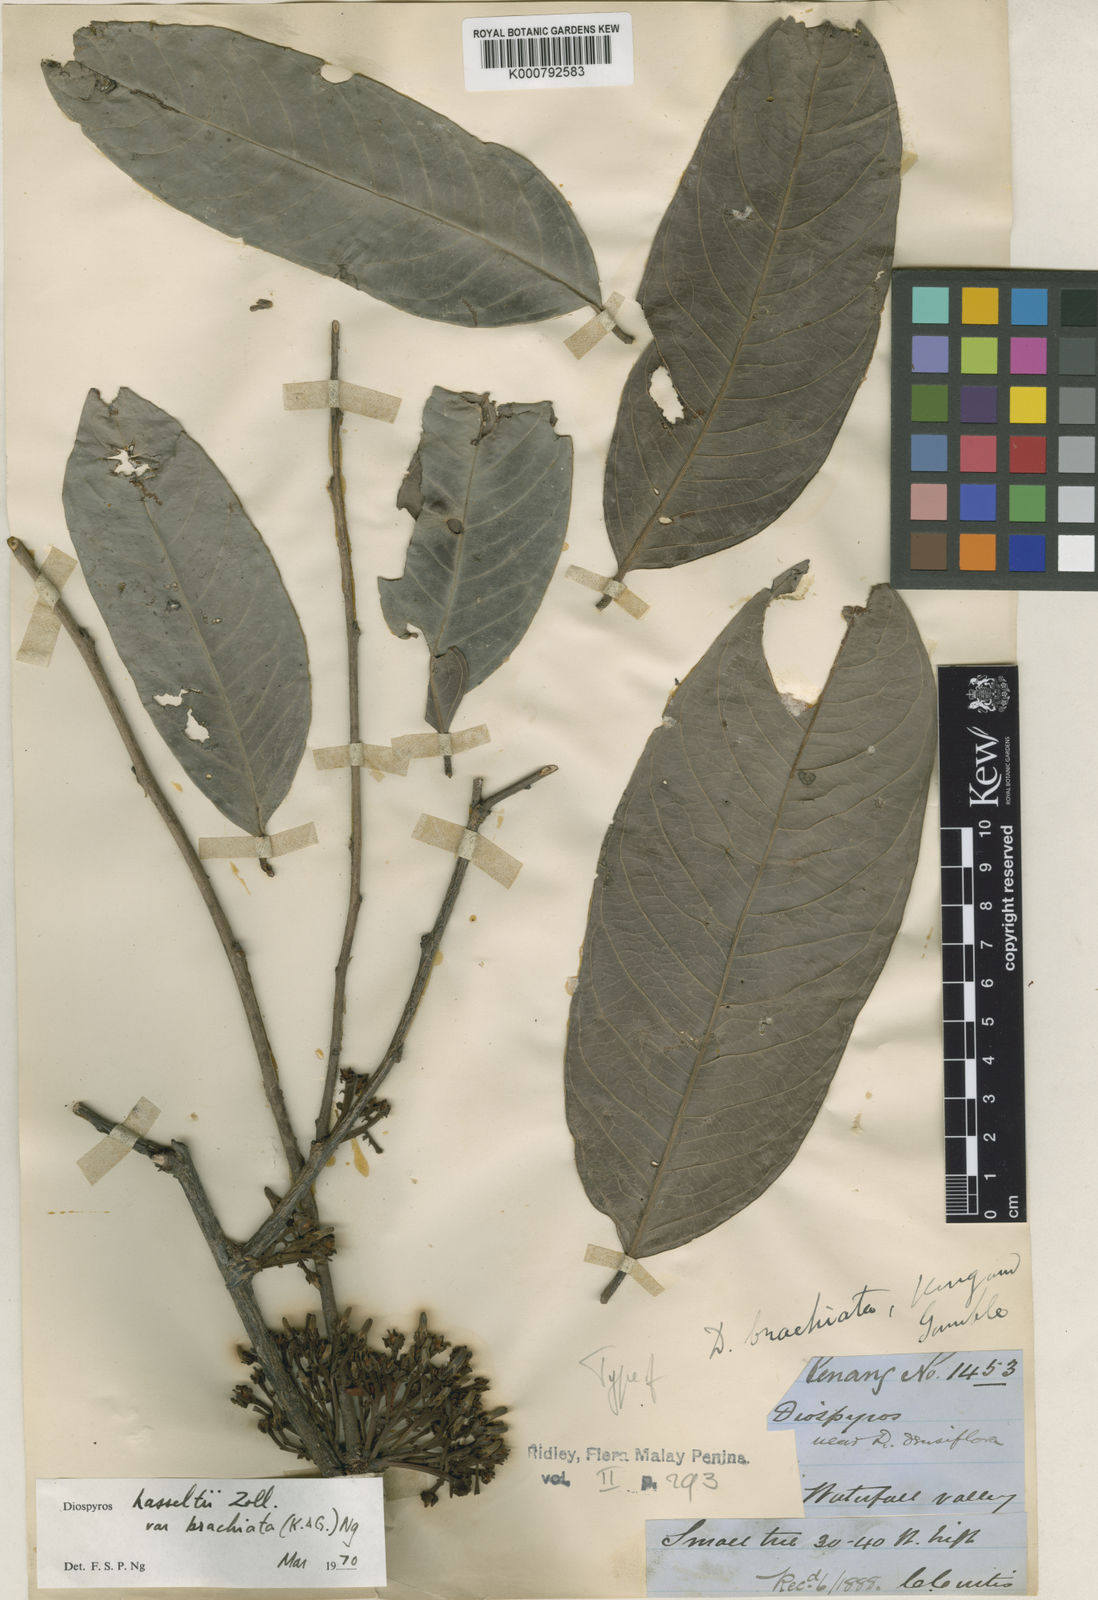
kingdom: Plantae
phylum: Tracheophyta
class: Magnoliopsida
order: Ericales
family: Ebenaceae
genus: Diospyros
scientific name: Diospyros hasseltii
